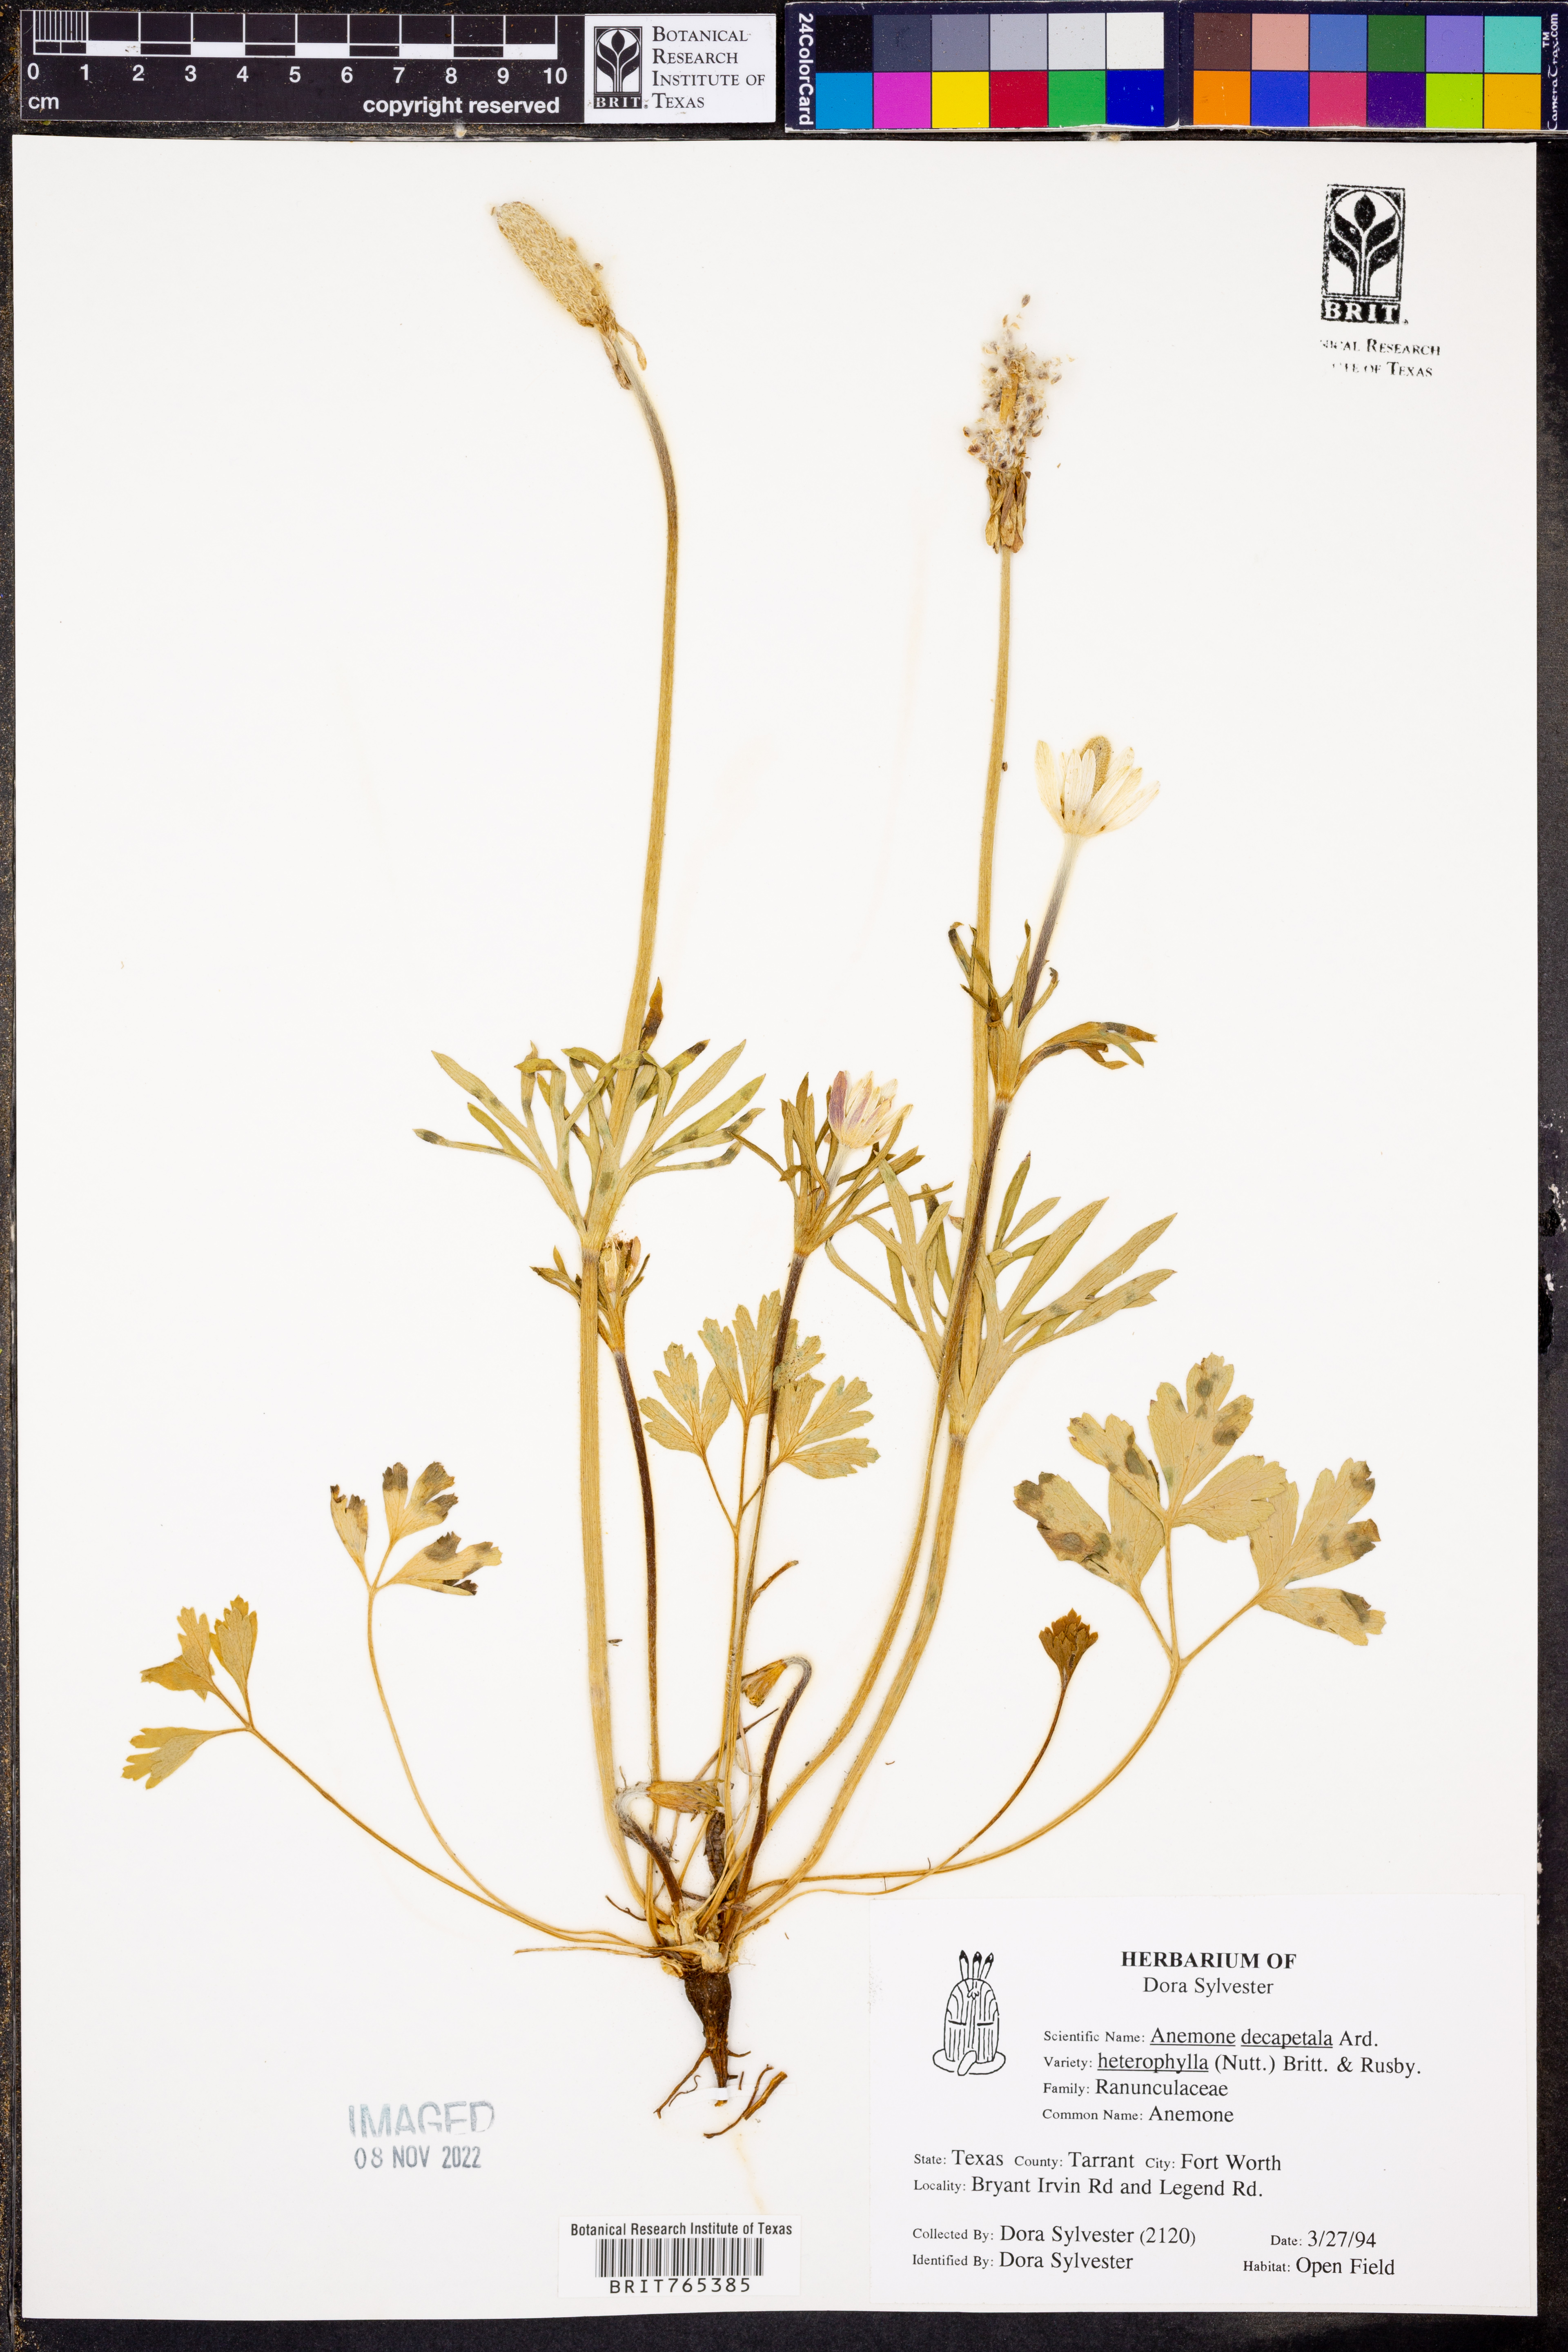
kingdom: Plantae
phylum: Tracheophyta
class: Magnoliopsida
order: Ranunculales
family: Ranunculaceae
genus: Anemone
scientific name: Anemone berlandieri
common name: Ten-petal anemone
